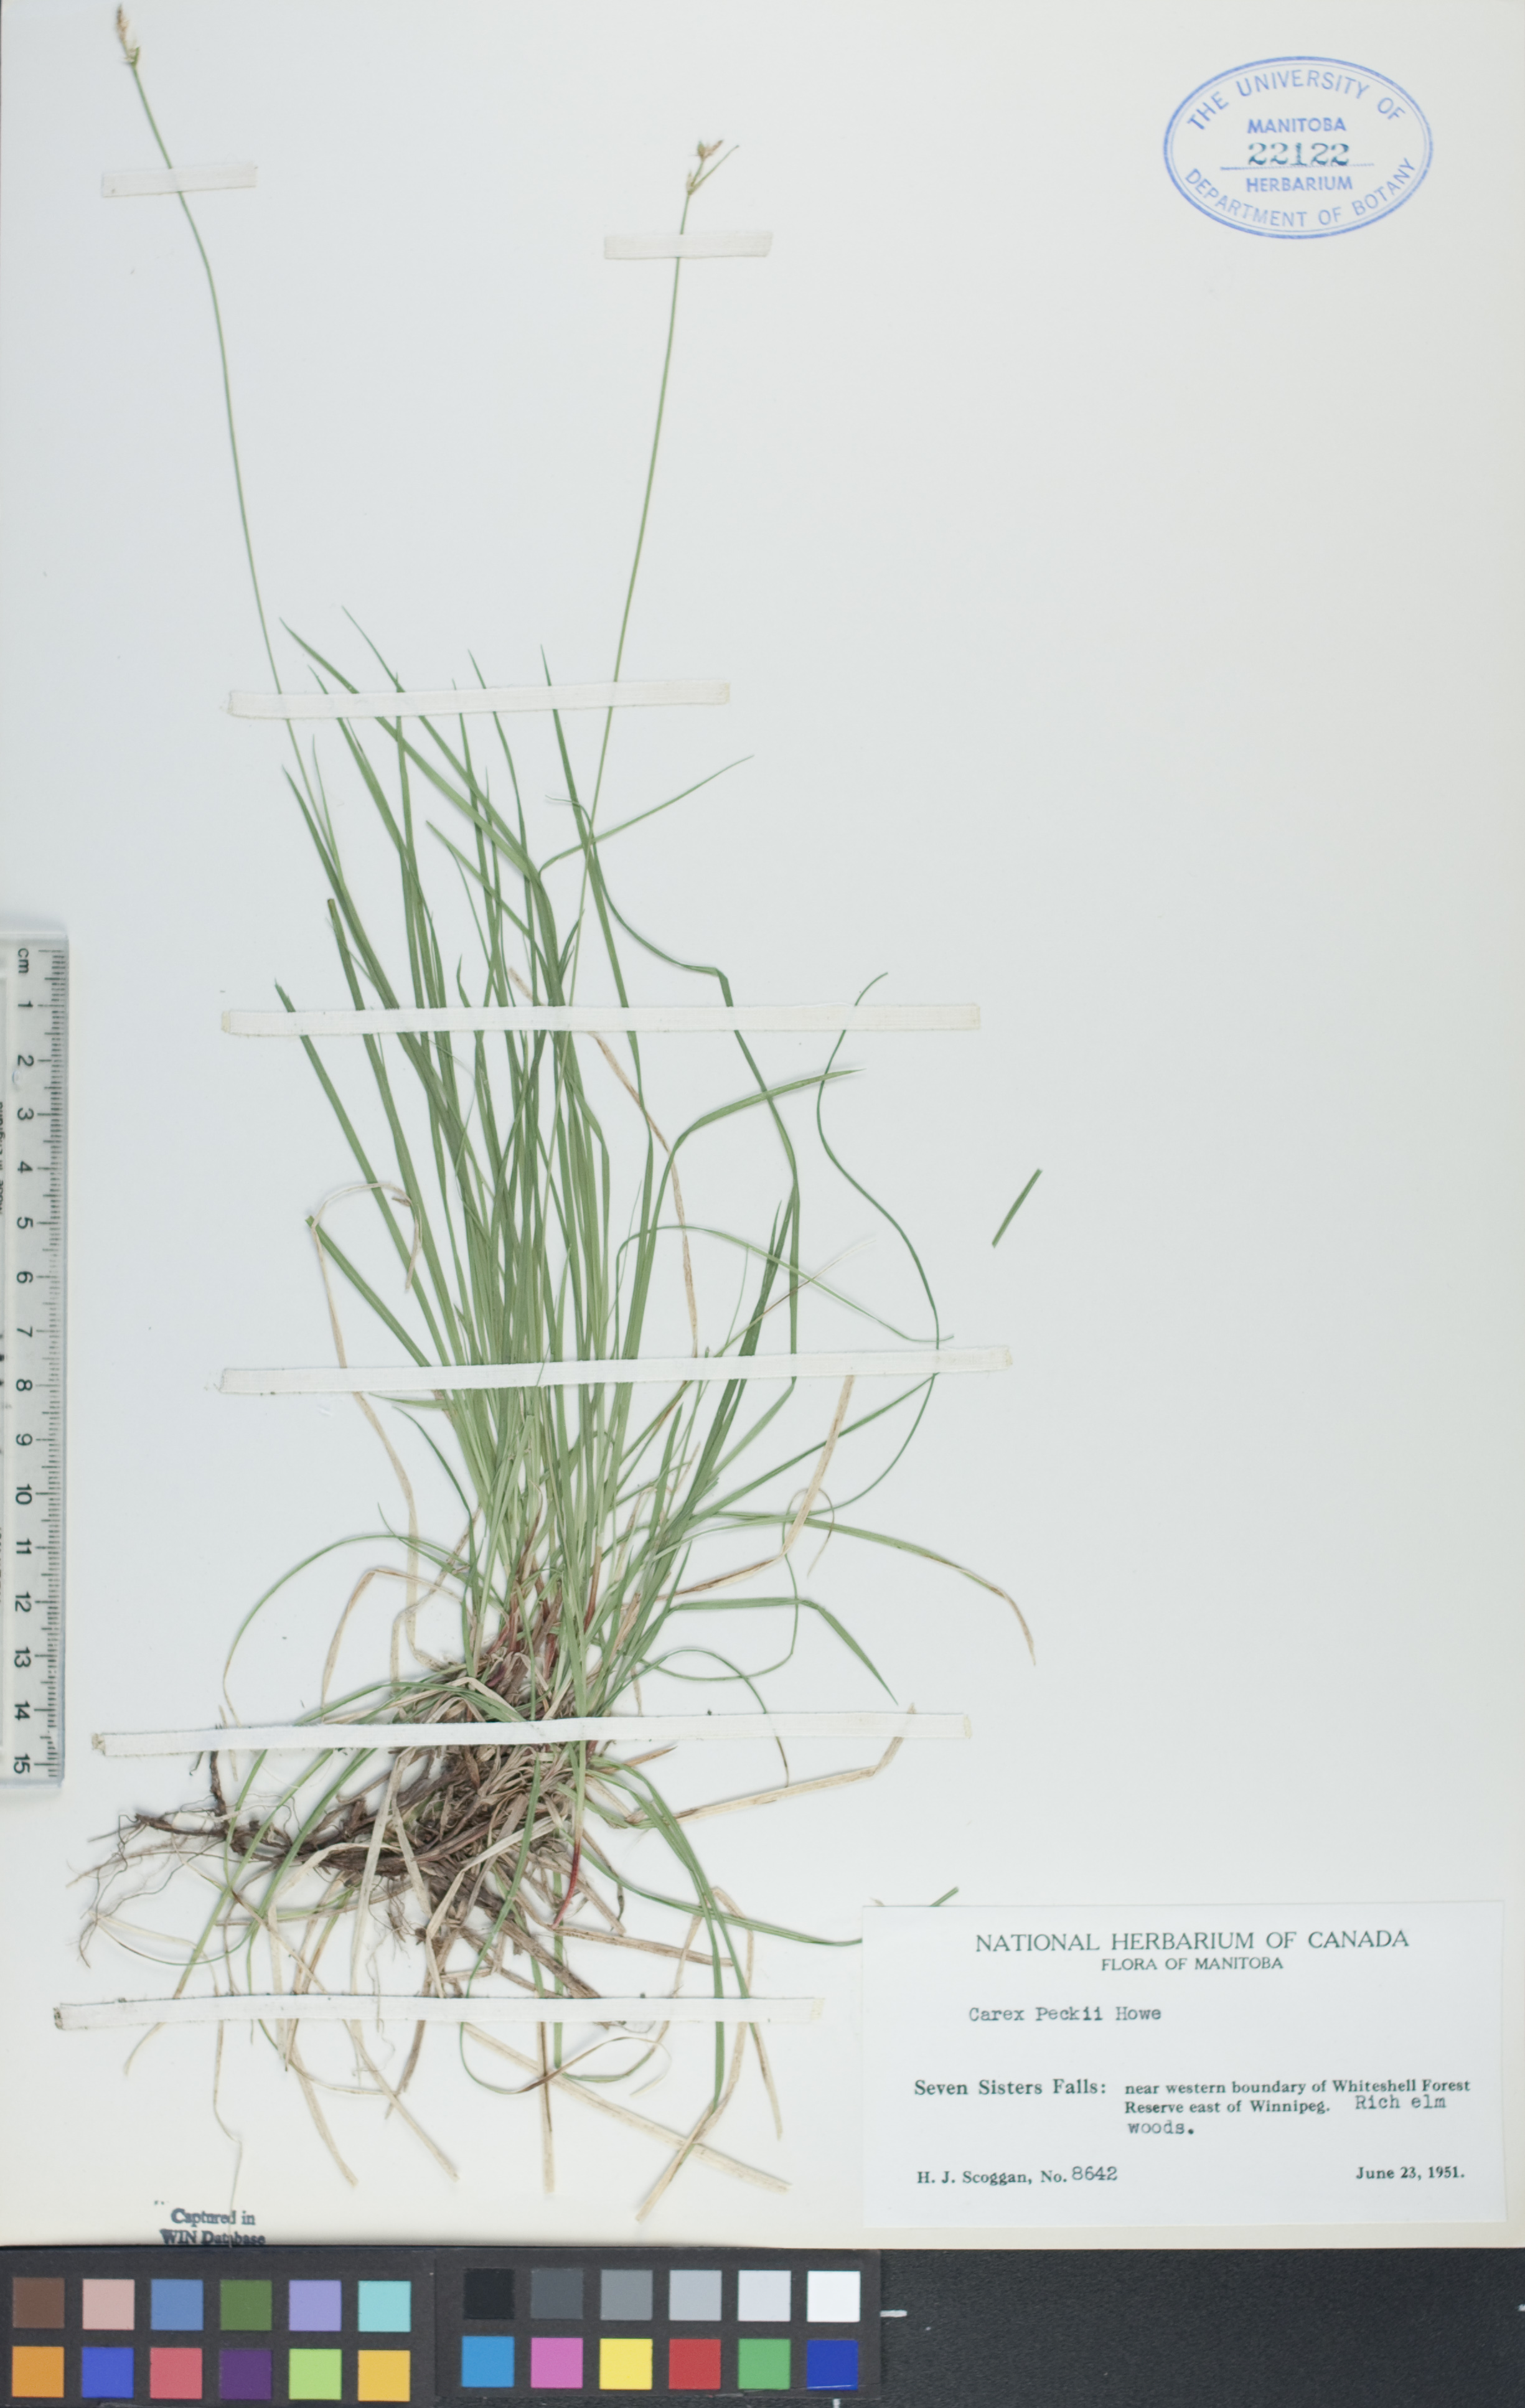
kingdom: Plantae
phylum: Tracheophyta
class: Liliopsida
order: Poales
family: Cyperaceae
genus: Carex
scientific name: Carex peckii
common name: Peck's oak sedge
